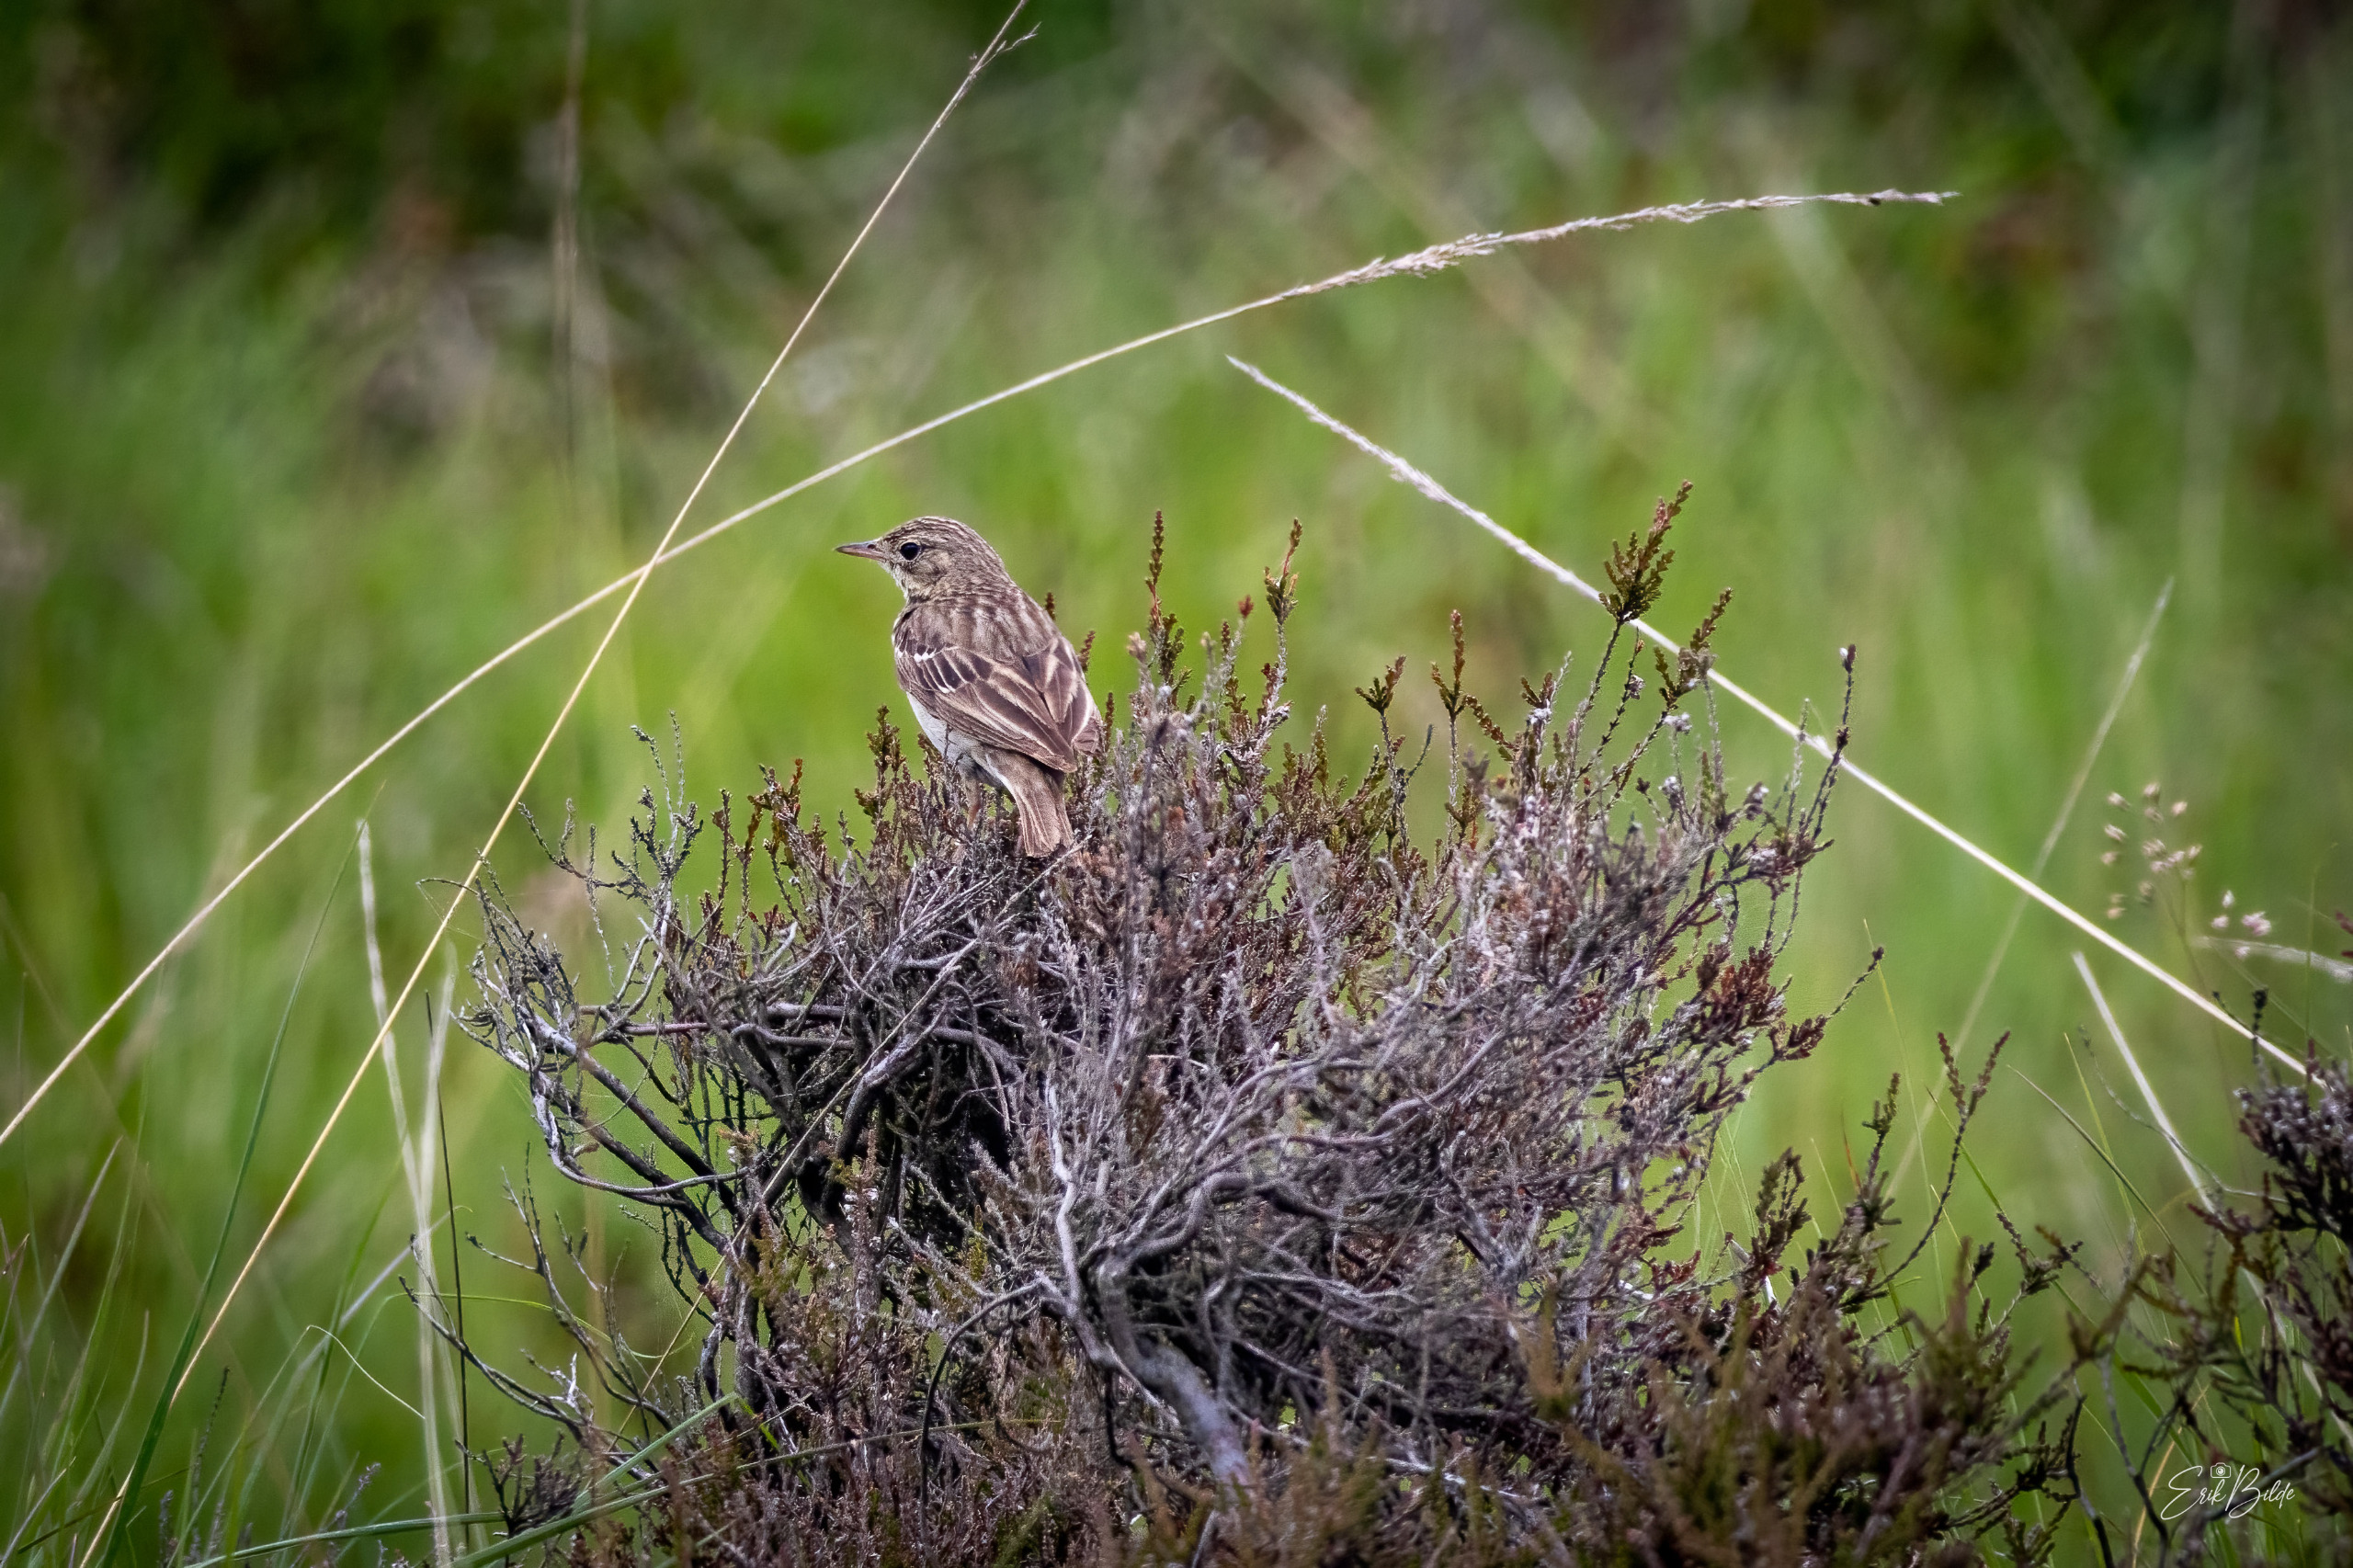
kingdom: Animalia
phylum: Chordata
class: Aves
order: Passeriformes
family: Motacillidae
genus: Anthus
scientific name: Anthus pratensis
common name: Engpiber
